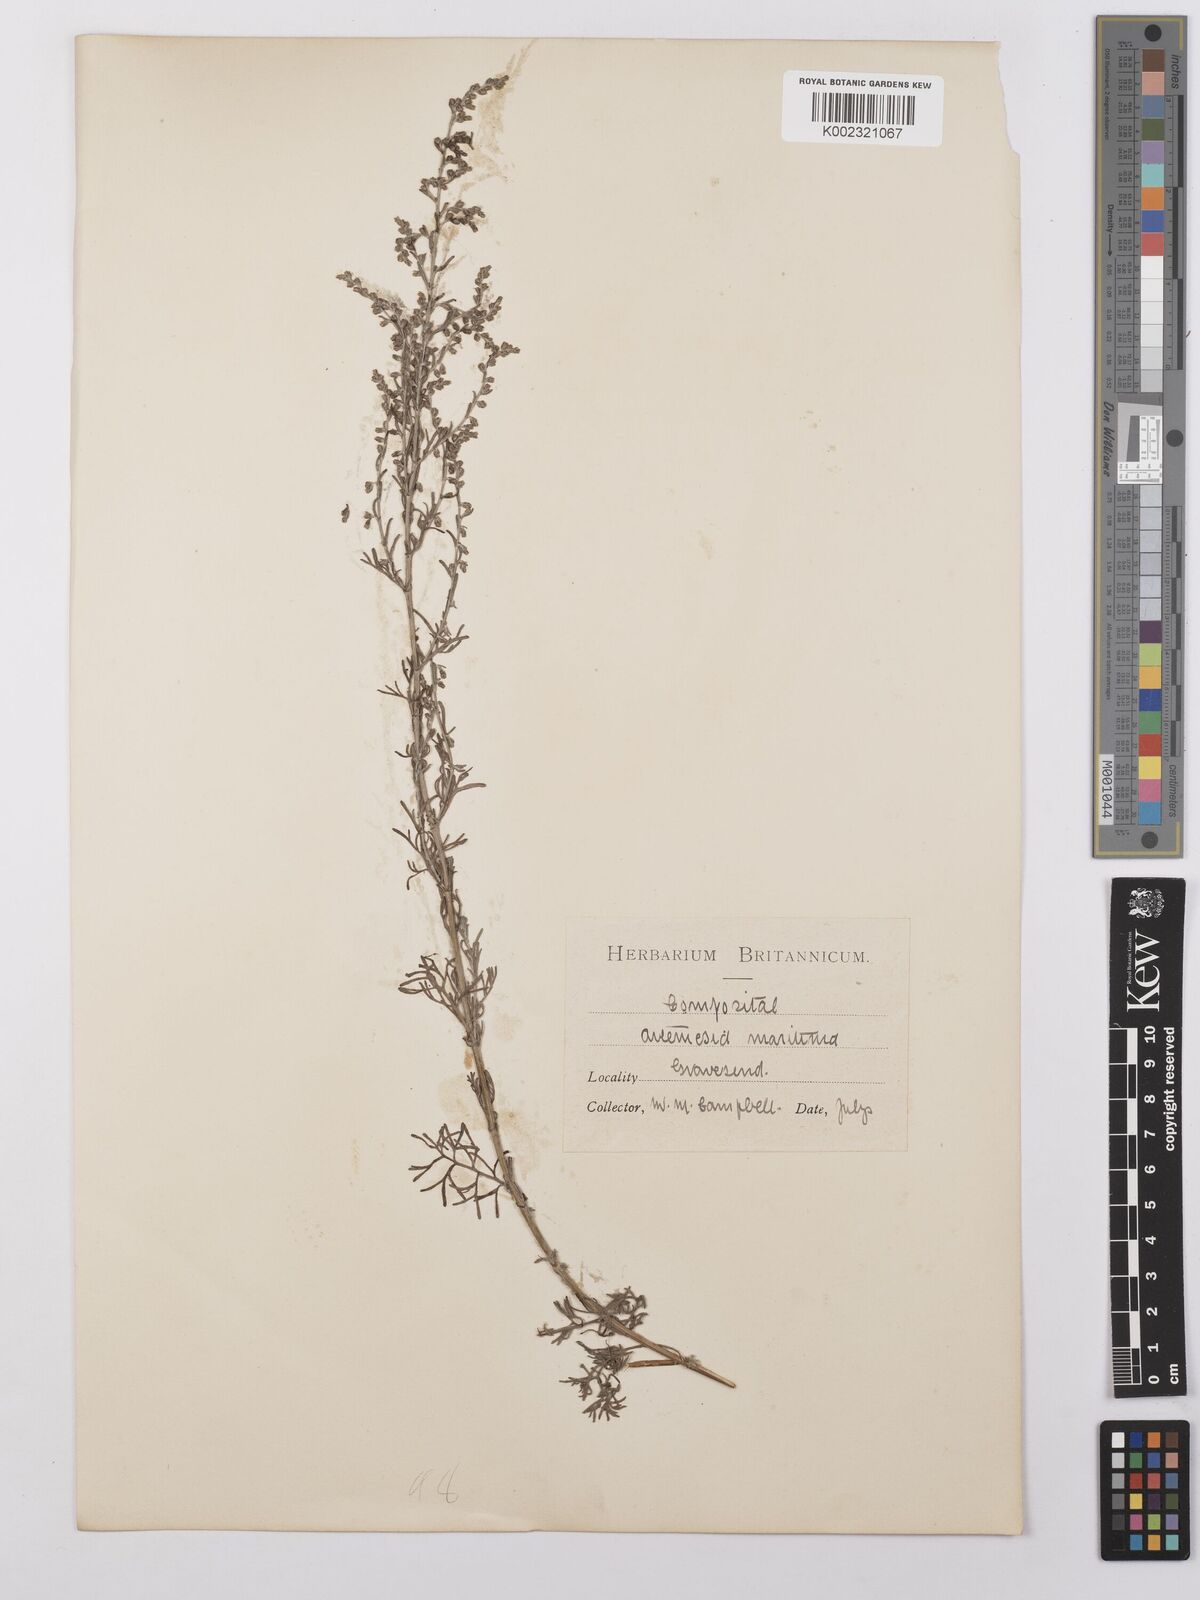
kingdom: Plantae
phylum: Tracheophyta
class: Magnoliopsida
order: Asterales
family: Asteraceae
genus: Artemisia
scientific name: Artemisia maritima
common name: Wormseed
